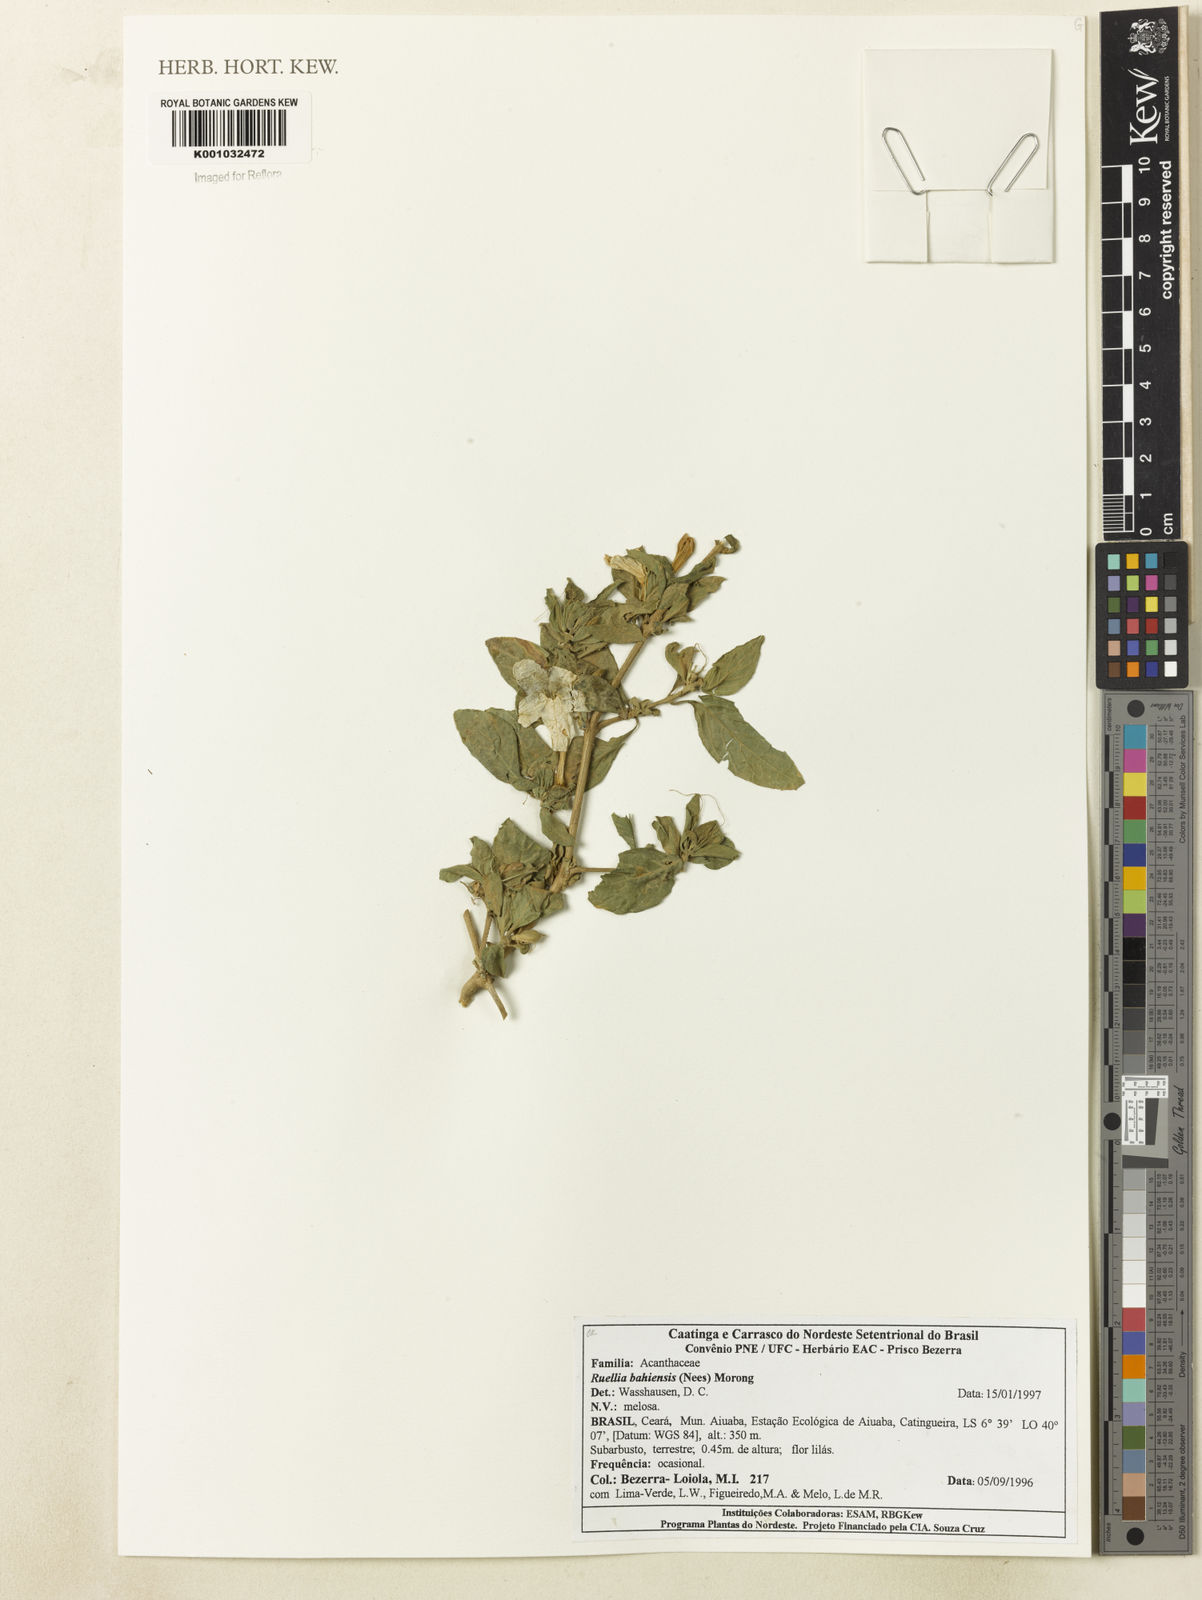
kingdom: Plantae
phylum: Tracheophyta
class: Magnoliopsida
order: Lamiales
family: Acanthaceae
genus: Ruellia
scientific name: Ruellia bahiensis
